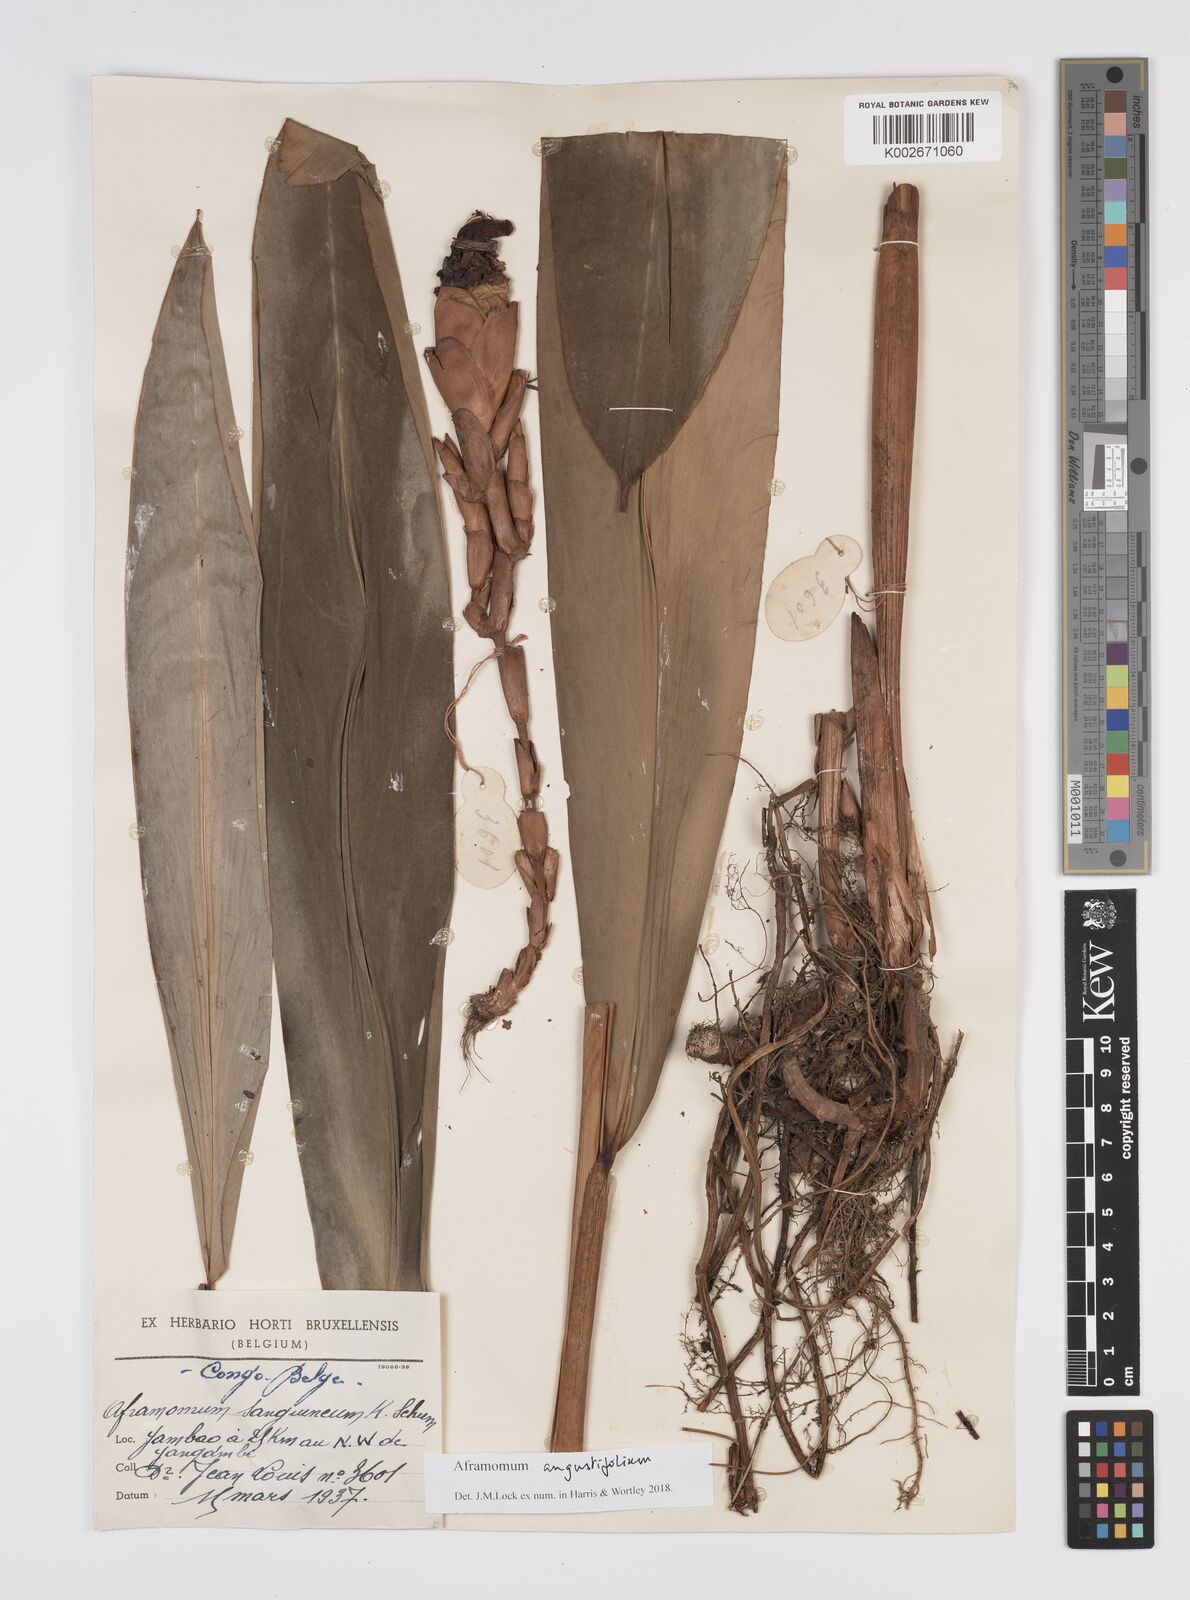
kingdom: Plantae
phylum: Tracheophyta
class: Liliopsida
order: Zingiberales
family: Zingiberaceae
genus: Aframomum
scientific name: Aframomum angustifolium
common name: Guinea grains
